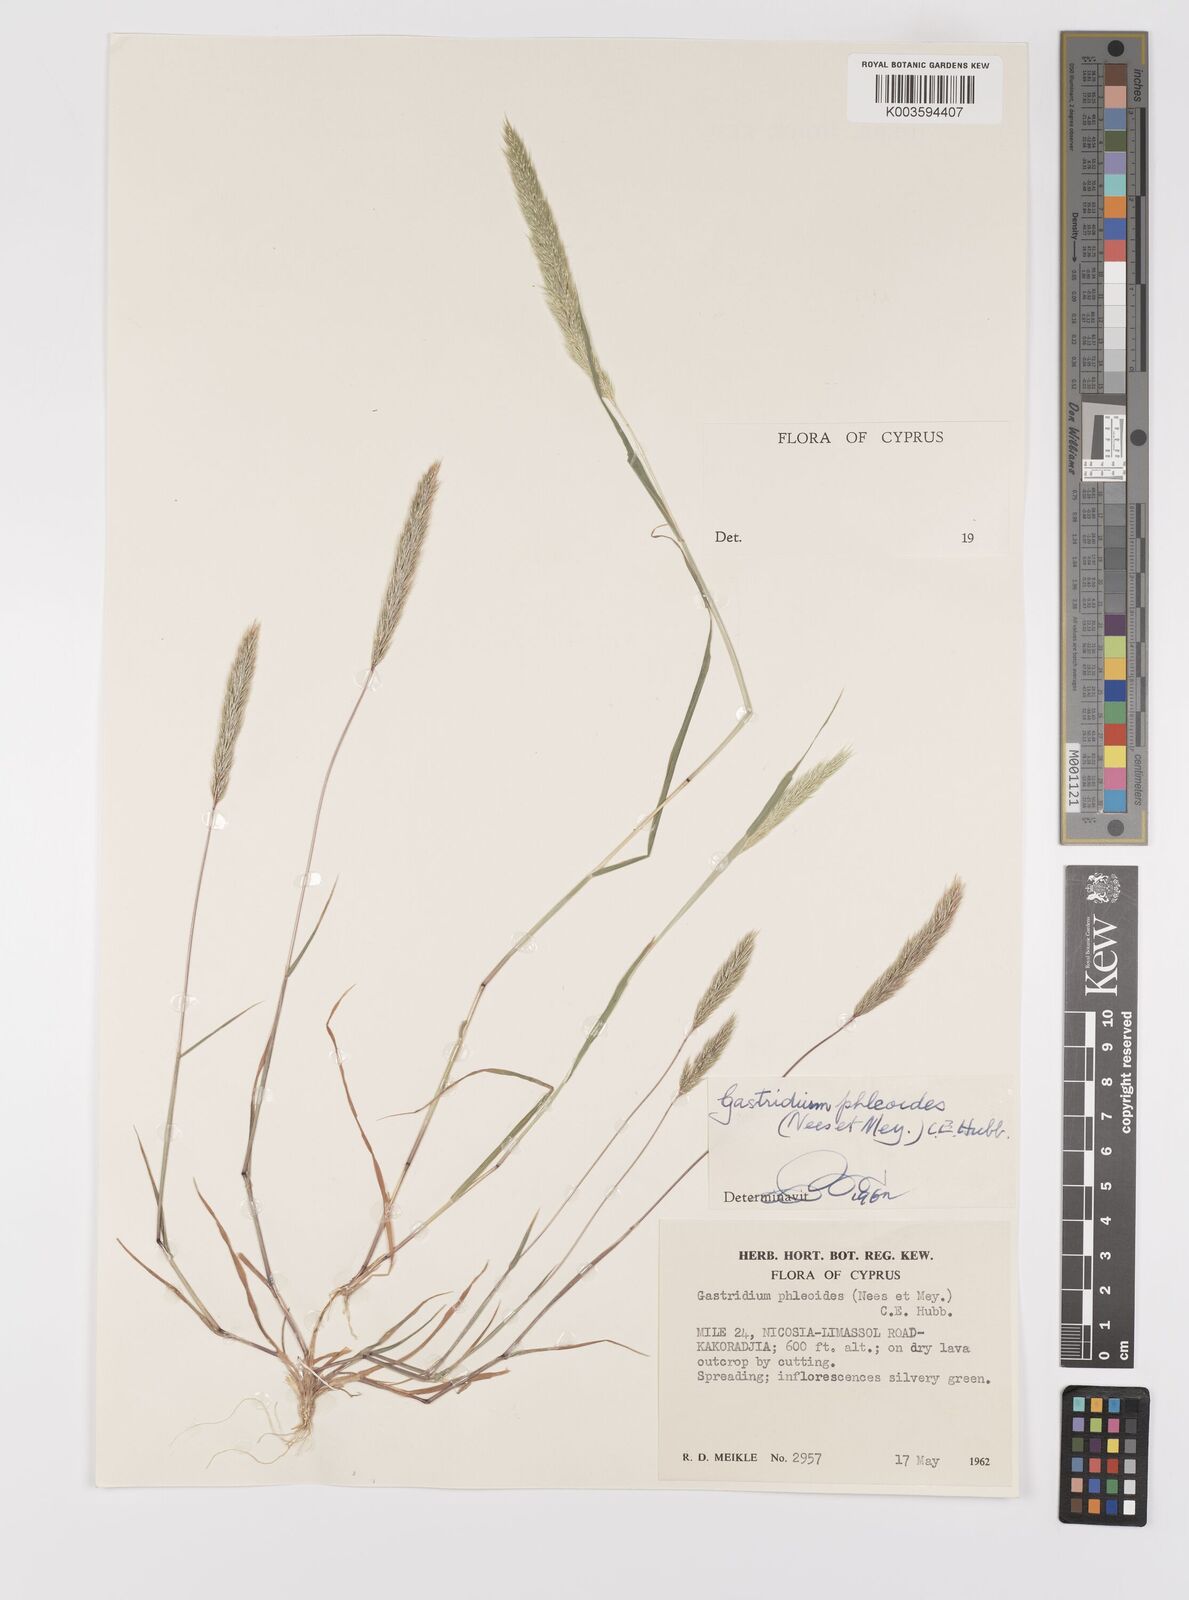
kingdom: Plantae
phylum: Tracheophyta
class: Liliopsida
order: Poales
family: Poaceae
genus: Gastridium
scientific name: Gastridium phleoides
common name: Nit grass
